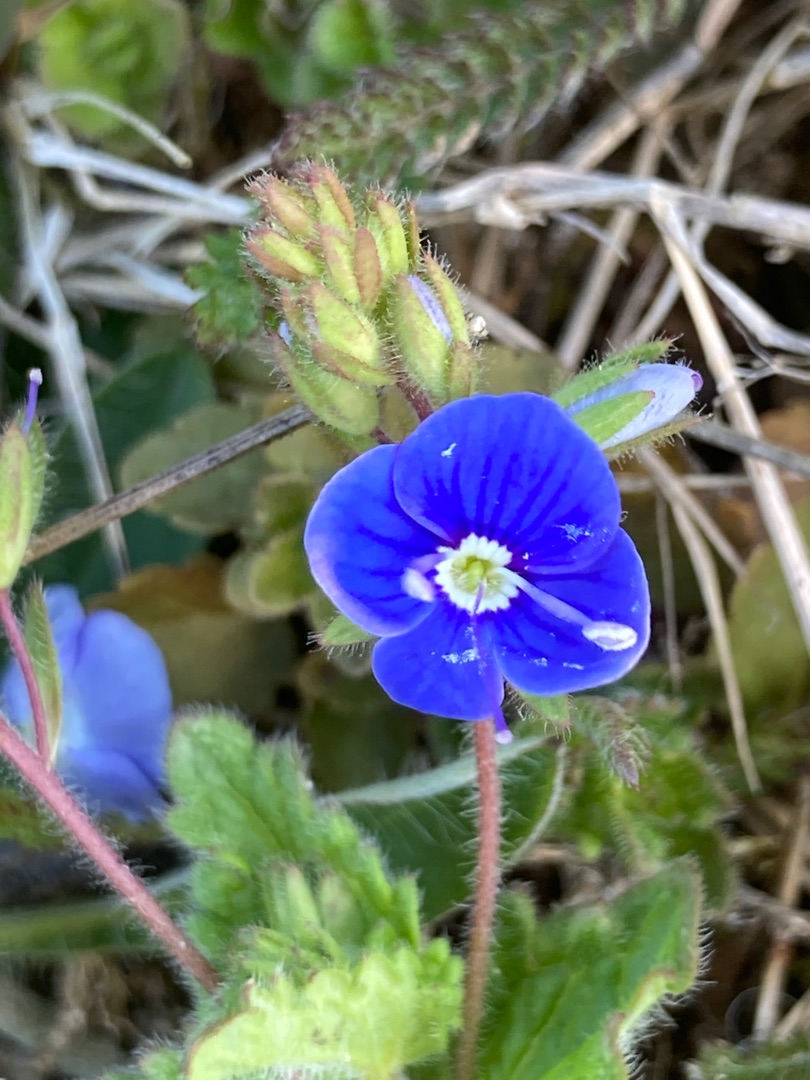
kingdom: Plantae
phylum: Tracheophyta
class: Magnoliopsida
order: Lamiales
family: Plantaginaceae
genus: Veronica
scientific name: Veronica chamaedrys
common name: Tveskægget ærenpris
